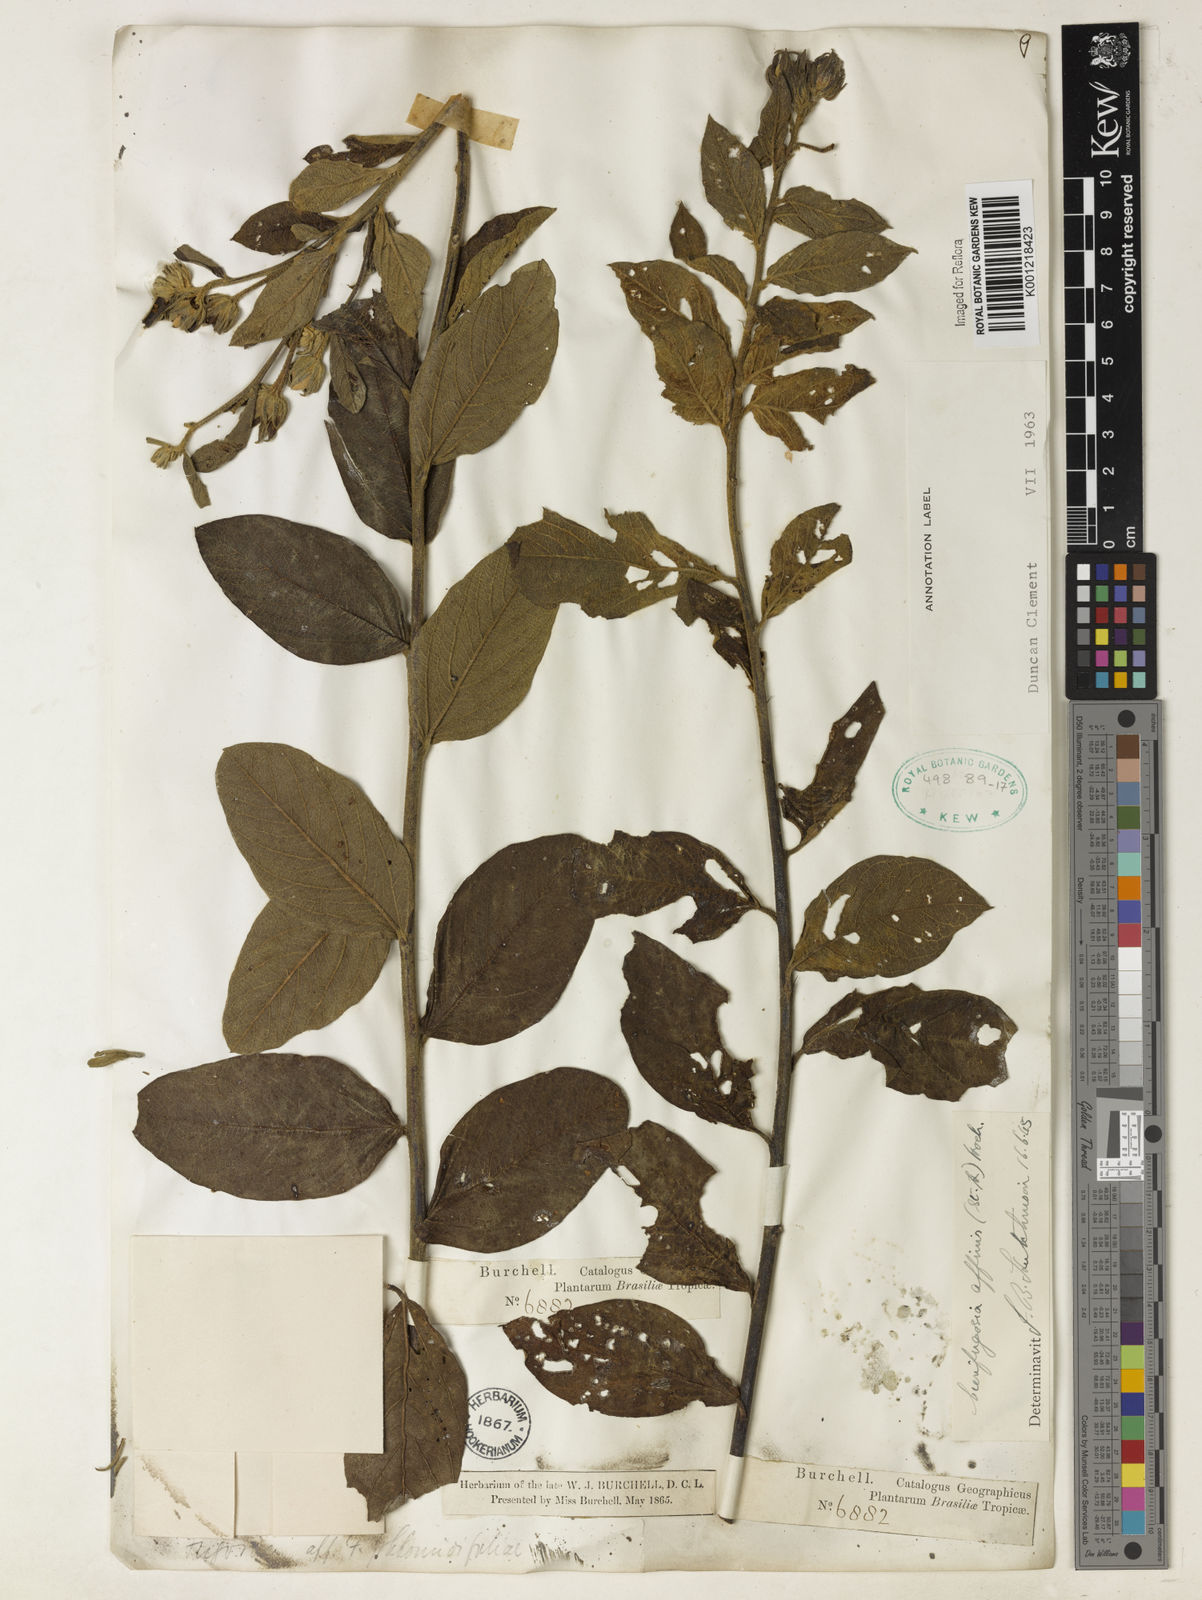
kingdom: Plantae
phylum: Tracheophyta
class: Magnoliopsida
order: Malvales
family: Malvaceae
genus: Cienfuegosia
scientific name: Cienfuegosia affinis
